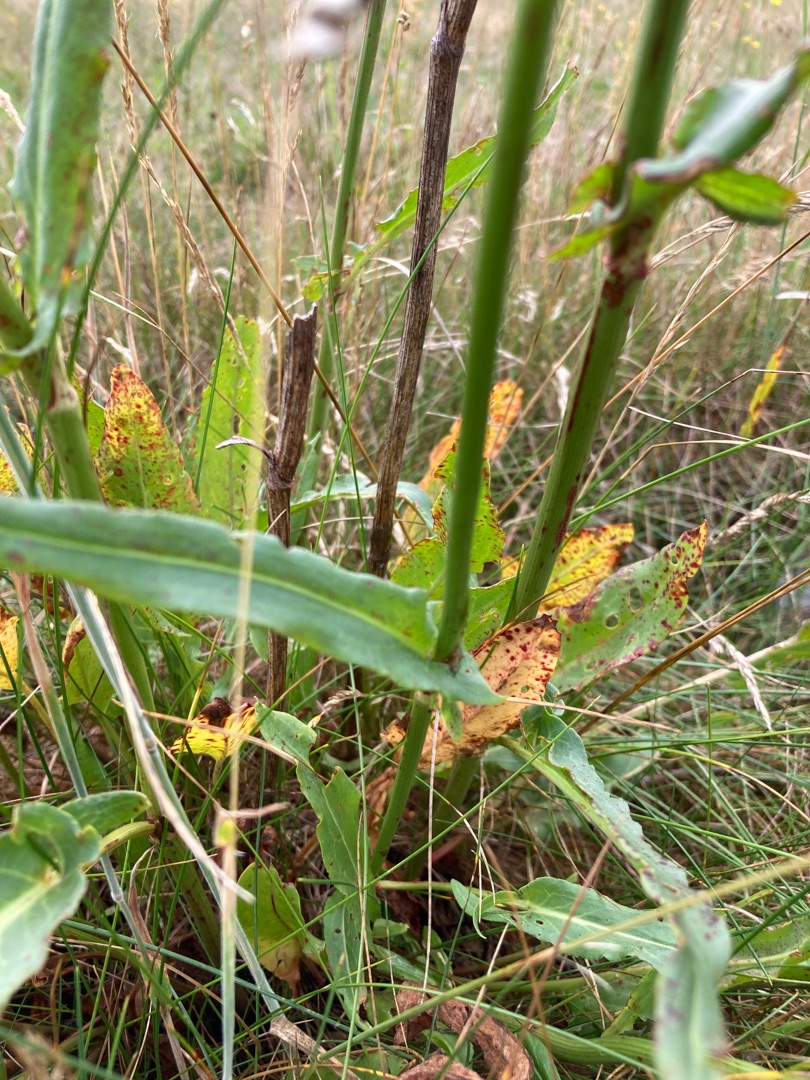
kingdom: Plantae
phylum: Tracheophyta
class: Magnoliopsida
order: Caryophyllales
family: Polygonaceae
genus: Rumex
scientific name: Rumex thyrsiflorus
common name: Dusk-syre
